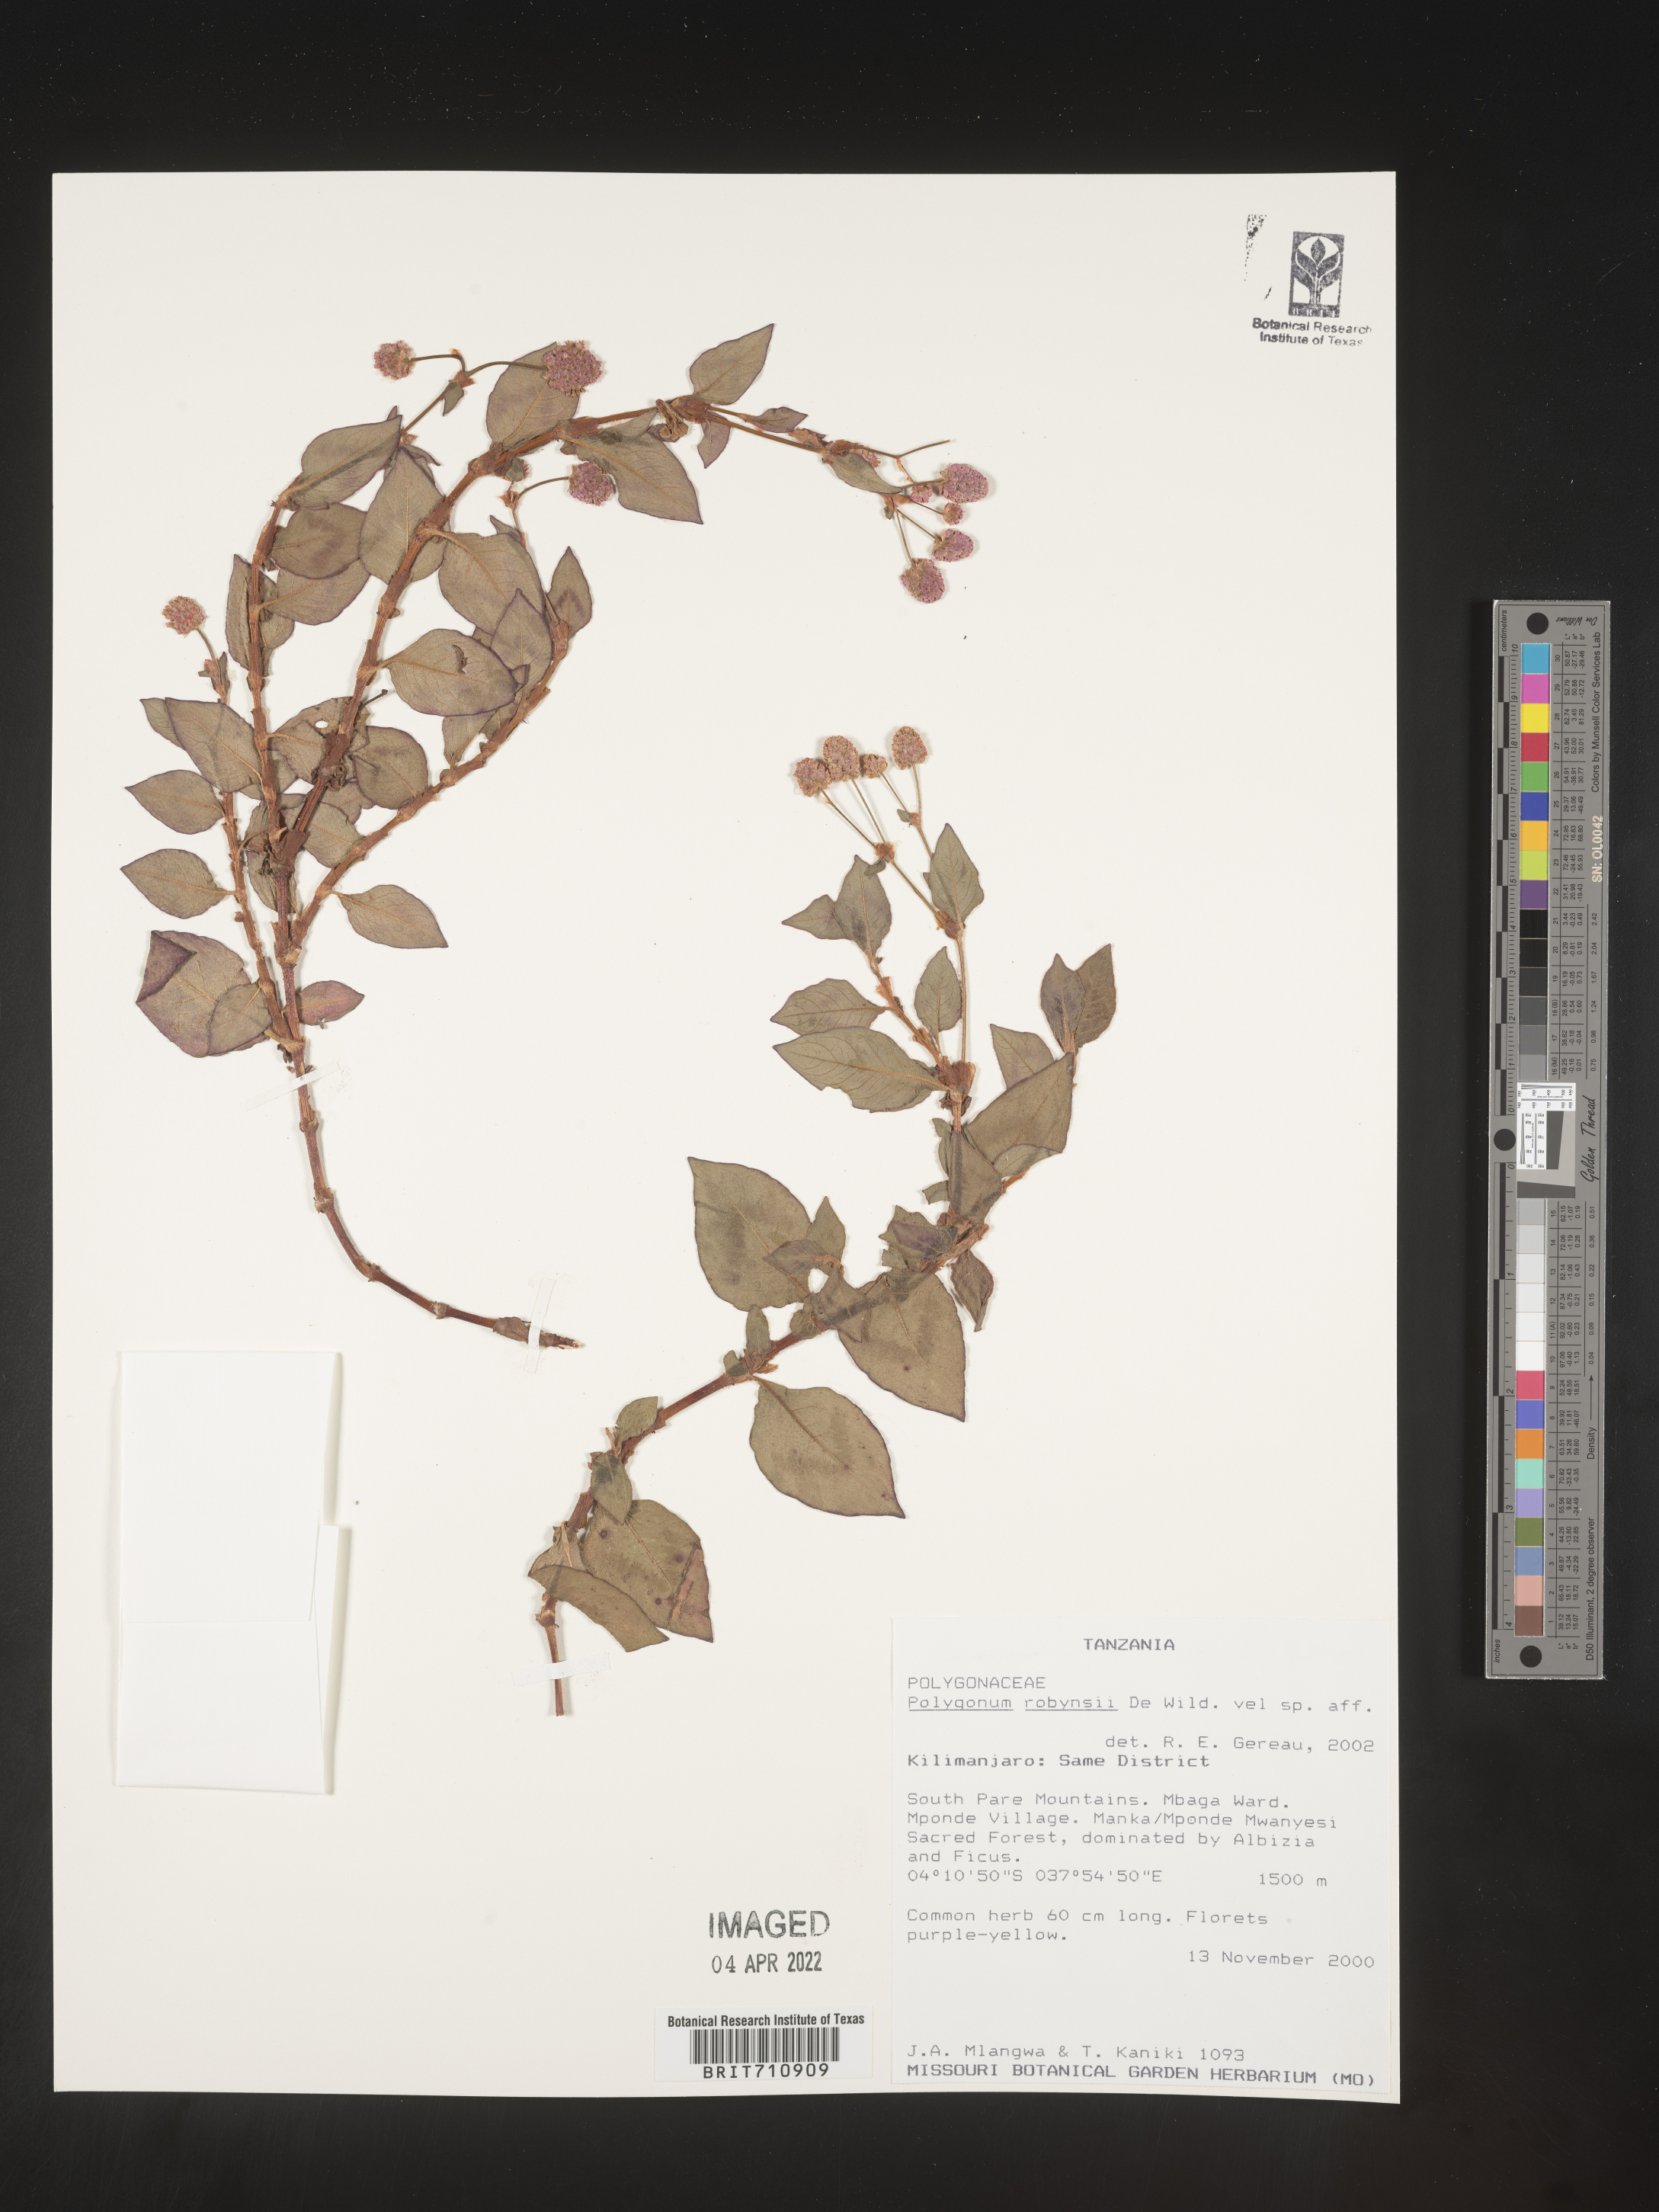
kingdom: Plantae
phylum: Tracheophyta
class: Magnoliopsida
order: Caryophyllales
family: Polygonaceae
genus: Polygonum
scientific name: Polygonum
